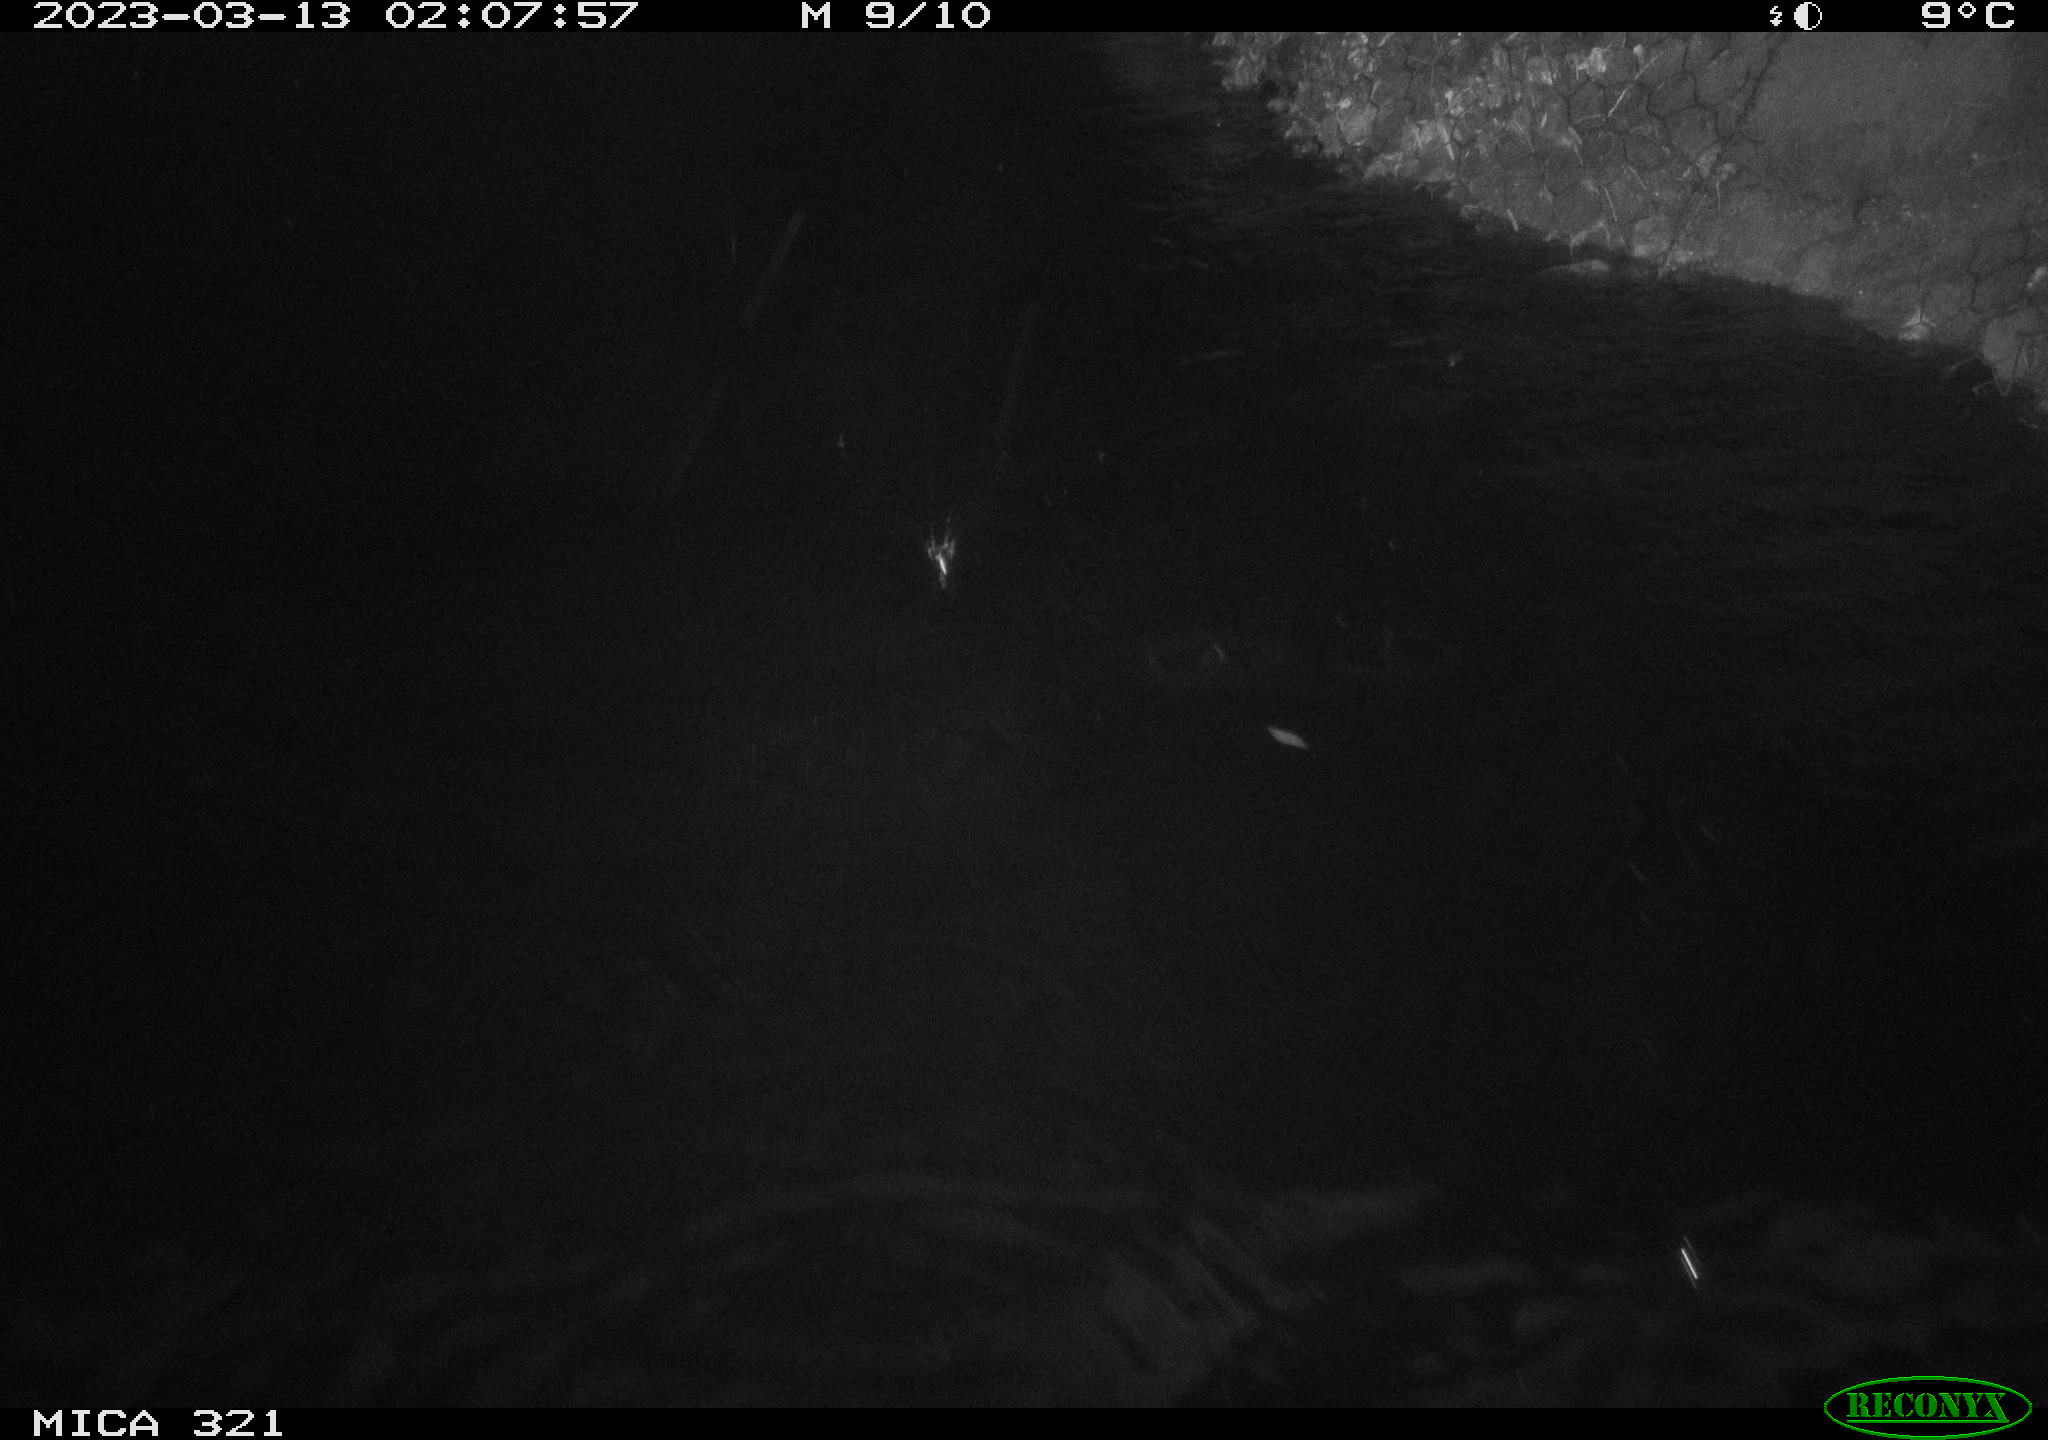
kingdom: Animalia
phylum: Chordata
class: Aves
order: Anseriformes
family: Anatidae
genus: Anas
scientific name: Anas
